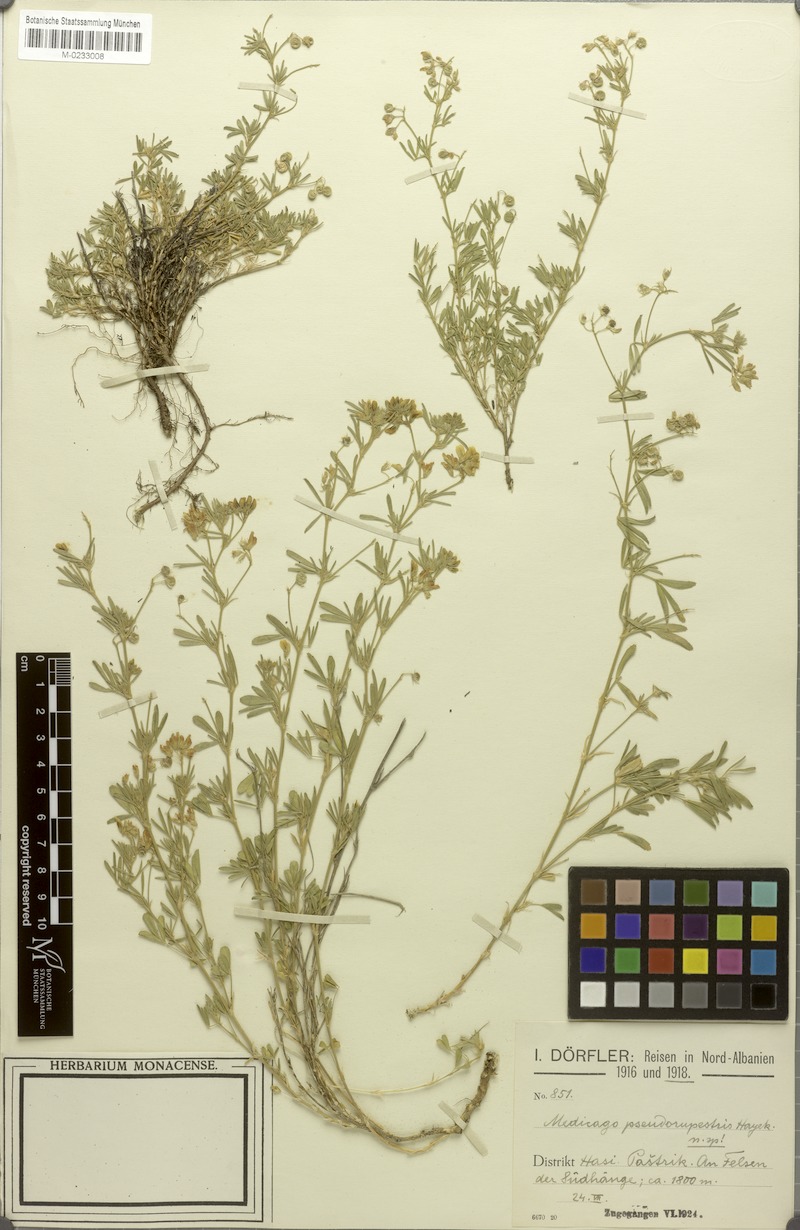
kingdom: Plantae
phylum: Tracheophyta
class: Magnoliopsida
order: Fabales
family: Fabaceae
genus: Medicago
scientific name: Medicago prostrata
